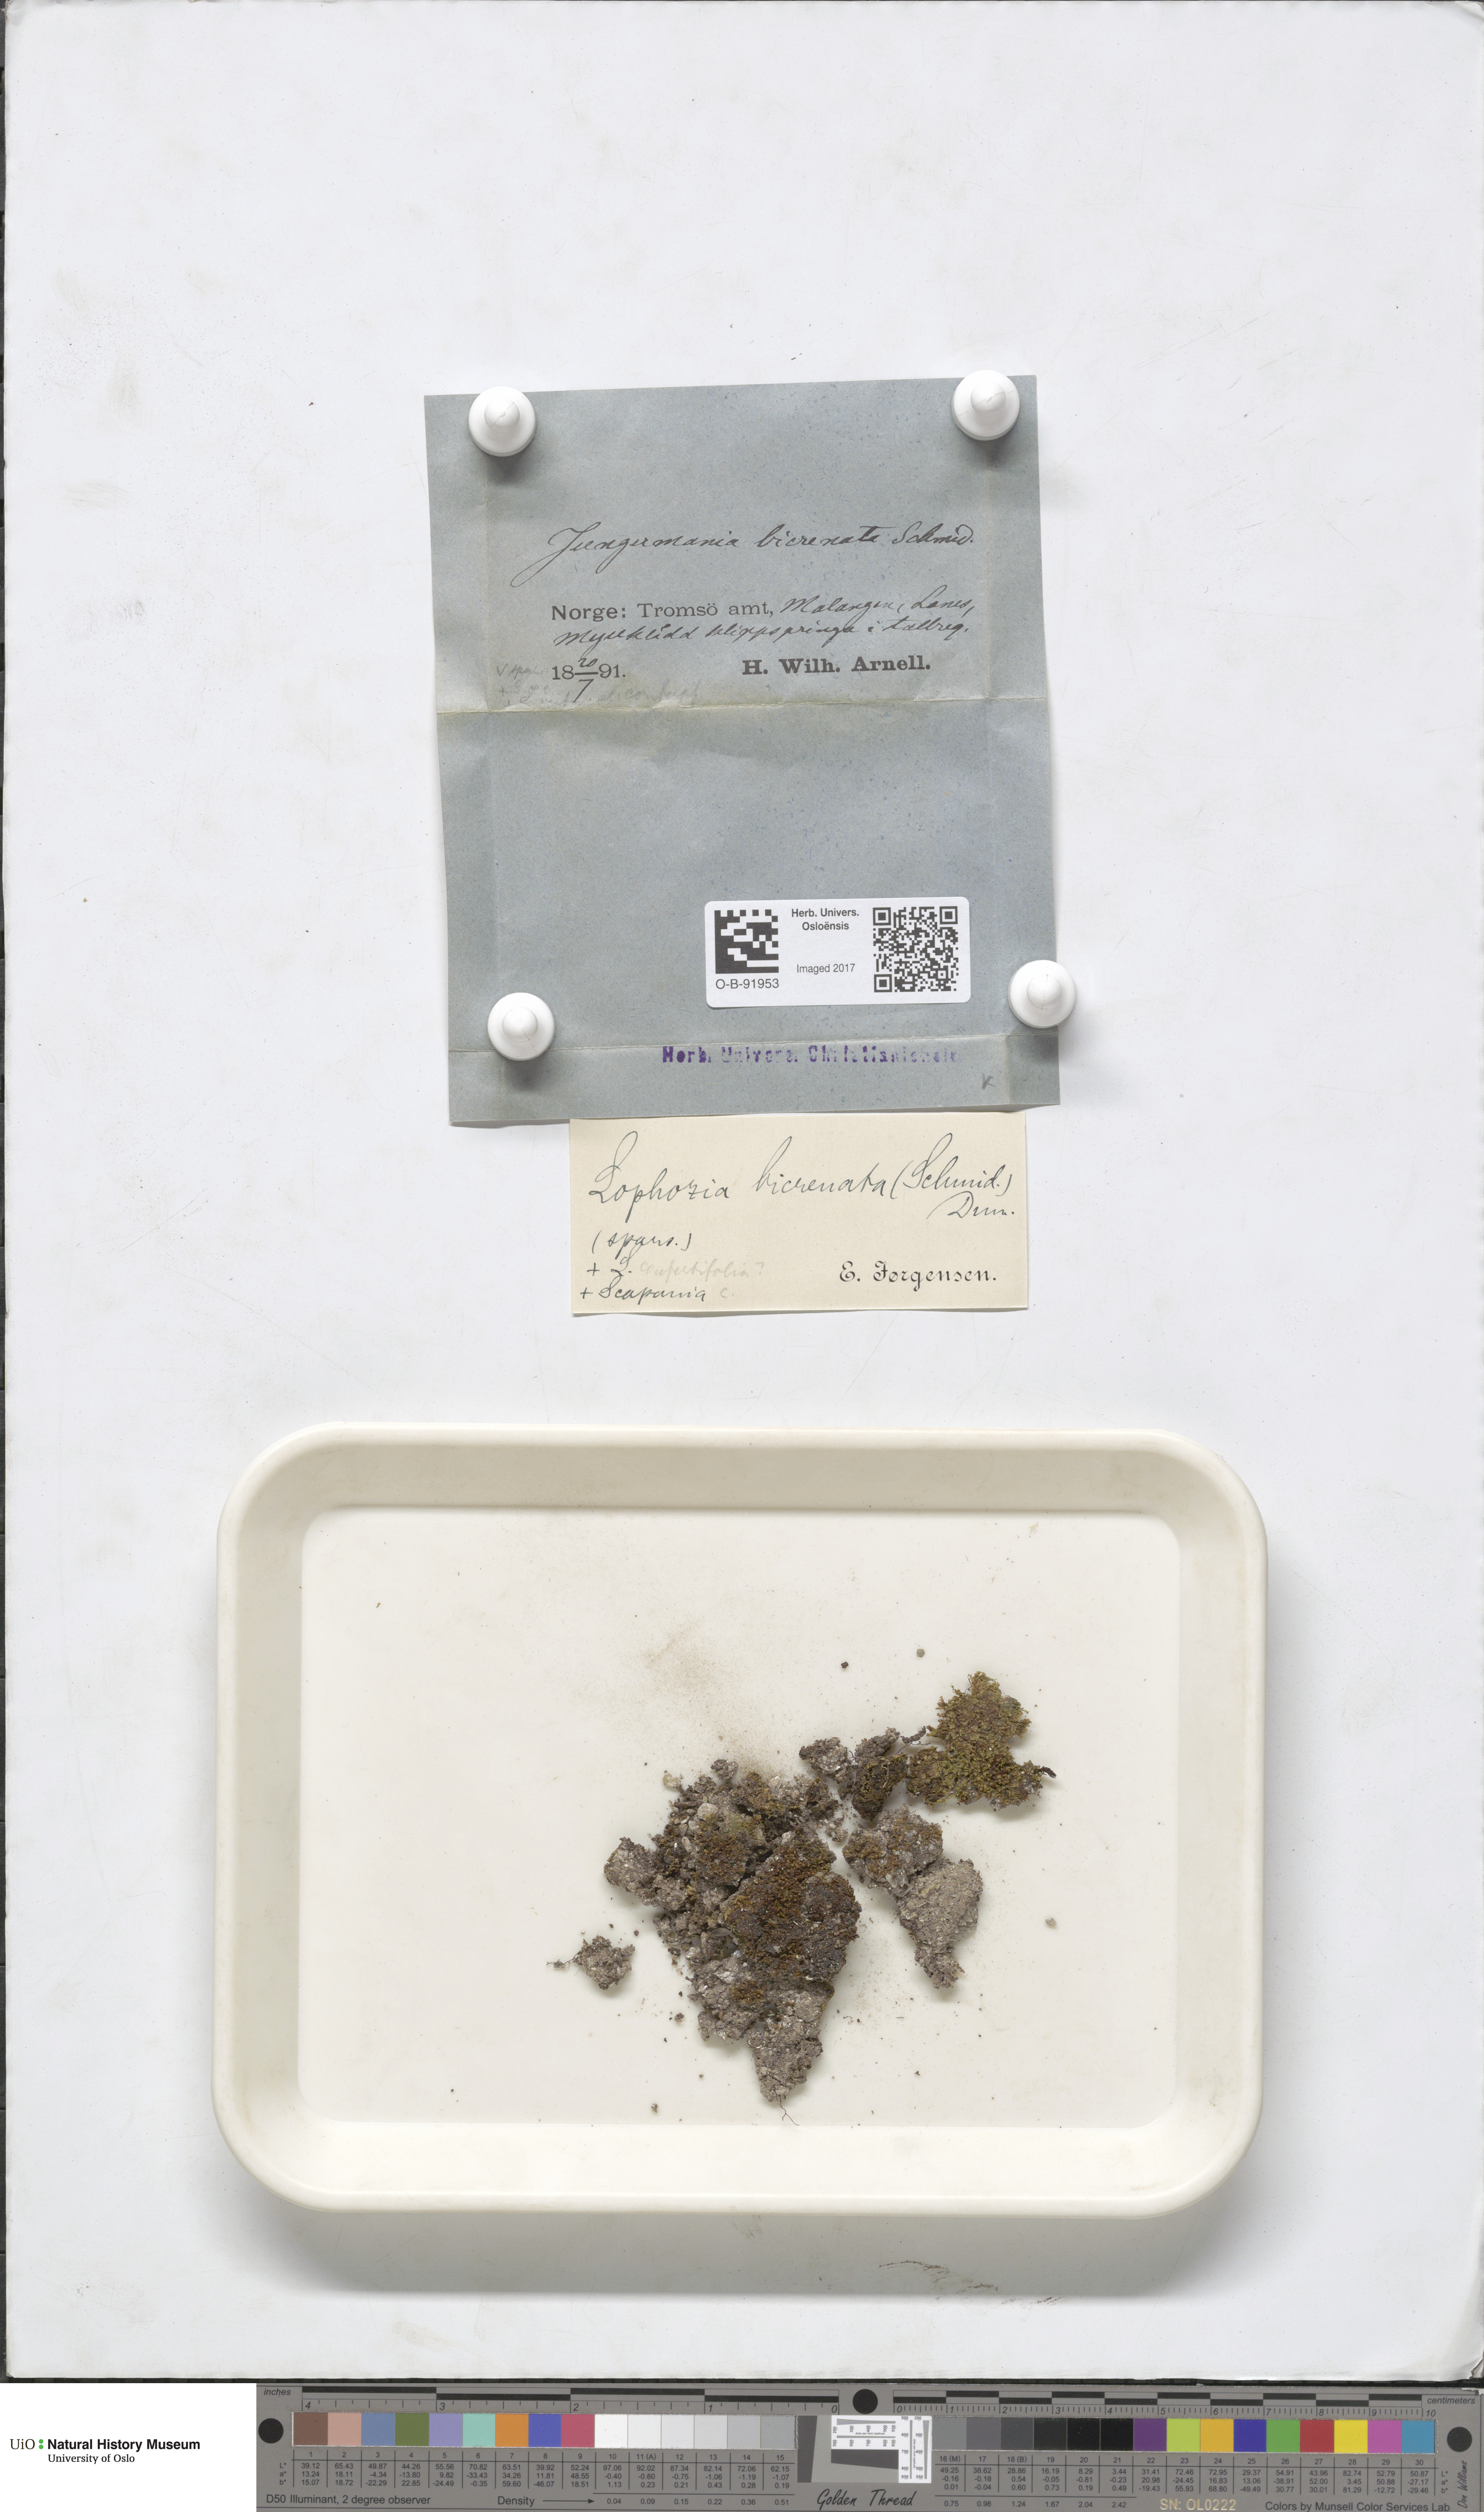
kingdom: Plantae
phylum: Marchantiophyta
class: Jungermanniopsida
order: Jungermanniales
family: Anastrophyllaceae
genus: Isopaches
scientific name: Isopaches bicrenatus
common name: Lesser notchwort
